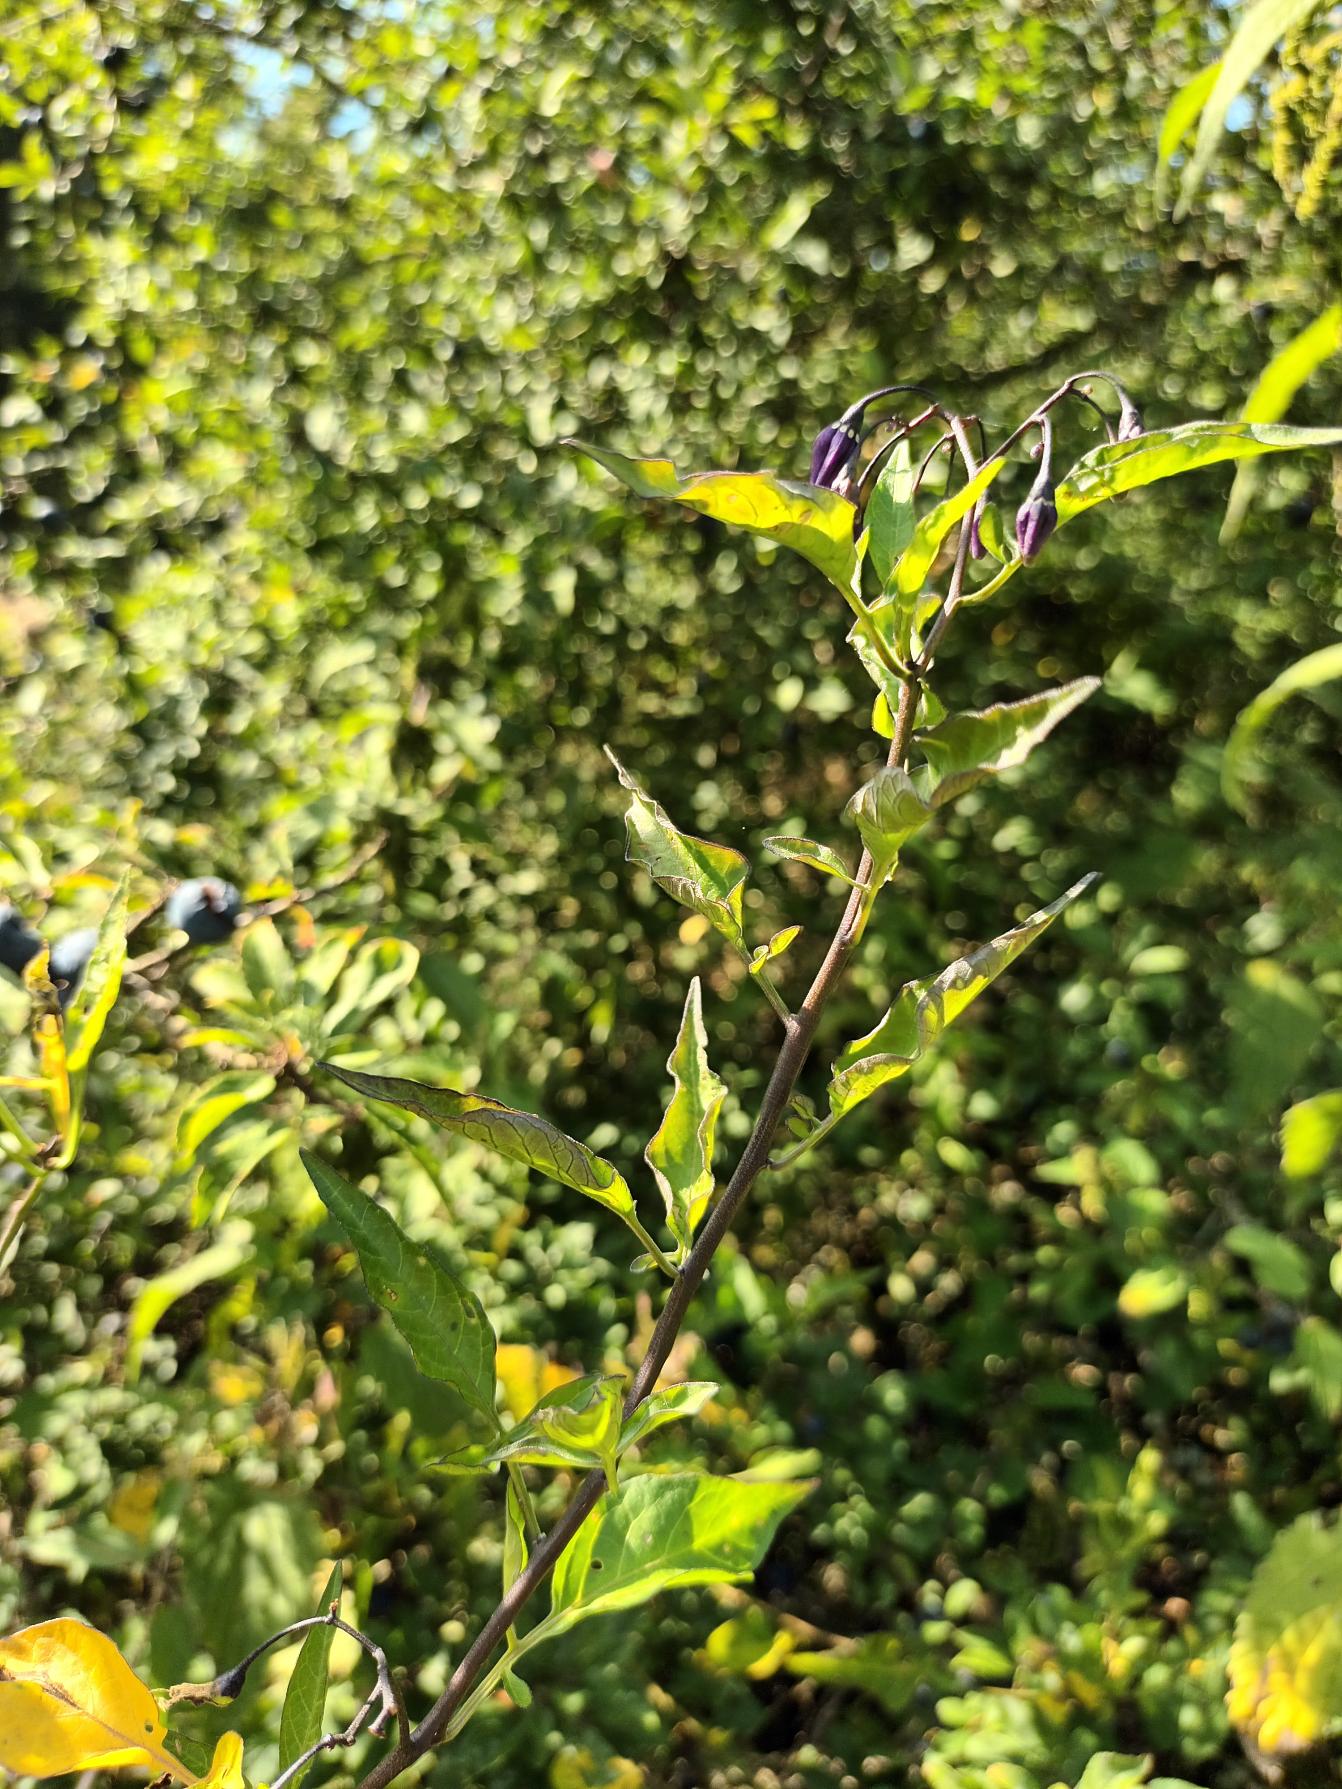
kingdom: Plantae
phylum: Tracheophyta
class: Magnoliopsida
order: Solanales
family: Solanaceae
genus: Solanum
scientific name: Solanum dulcamara
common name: Bittersød natskygge
